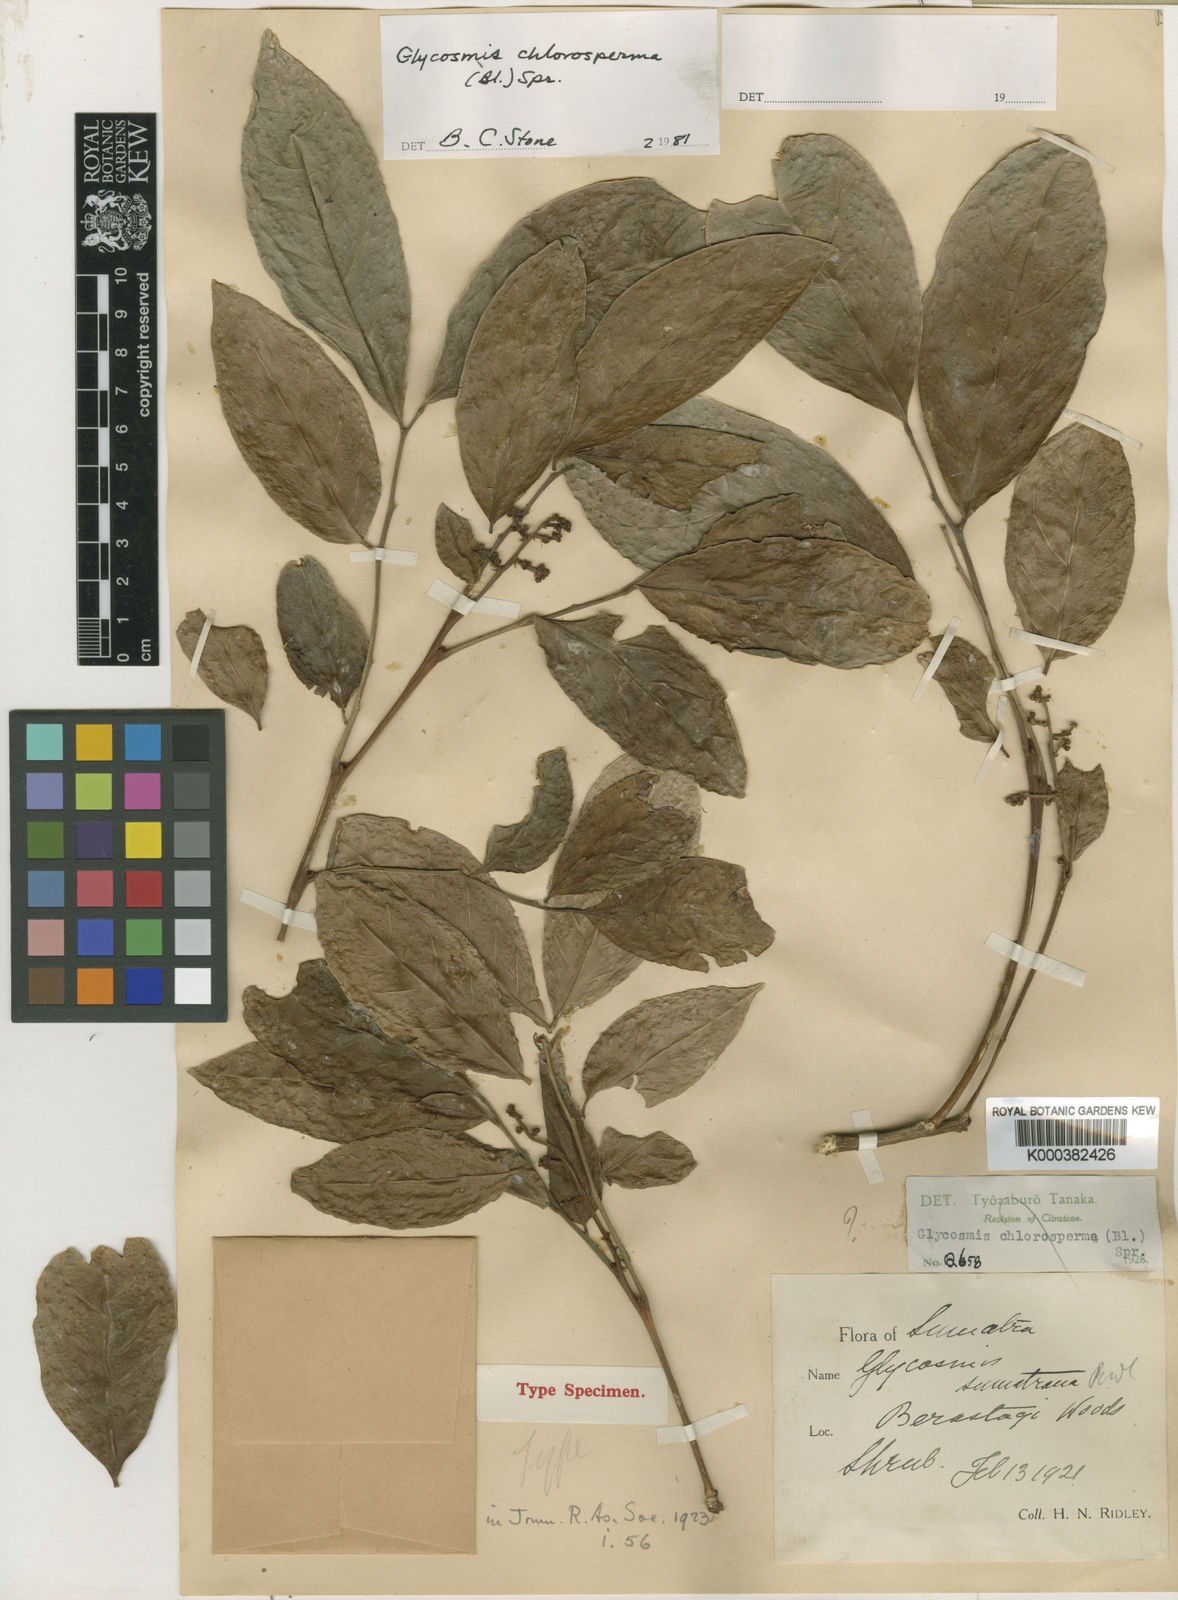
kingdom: Plantae
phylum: Tracheophyta
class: Magnoliopsida
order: Sapindales
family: Rutaceae
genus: Glycosmis
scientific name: Glycosmis chlorosperma
